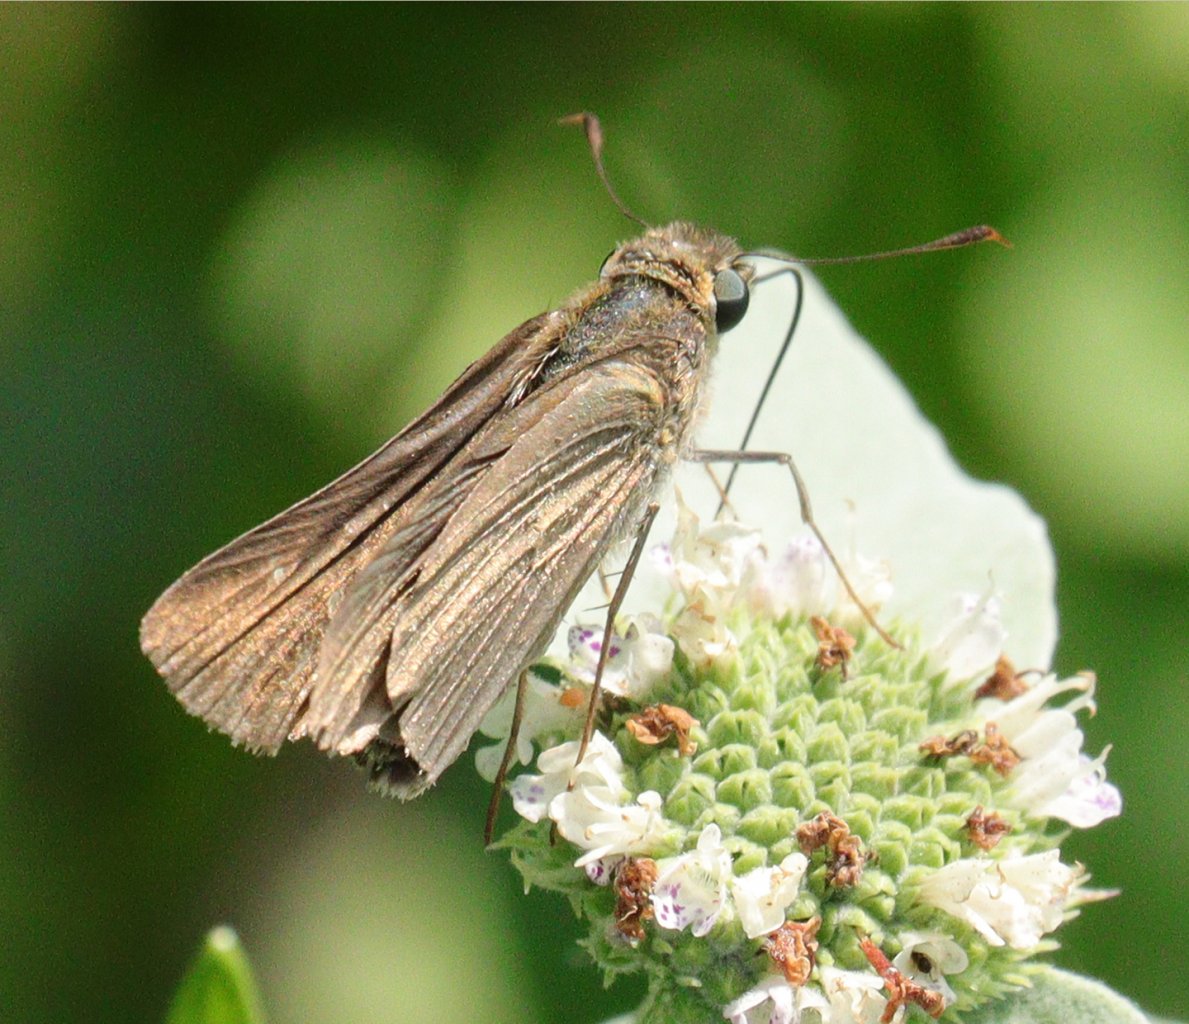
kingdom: Animalia
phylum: Arthropoda
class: Insecta
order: Lepidoptera
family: Hesperiidae
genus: Panoquina
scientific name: Panoquina ocola
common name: Ocola Skipper
